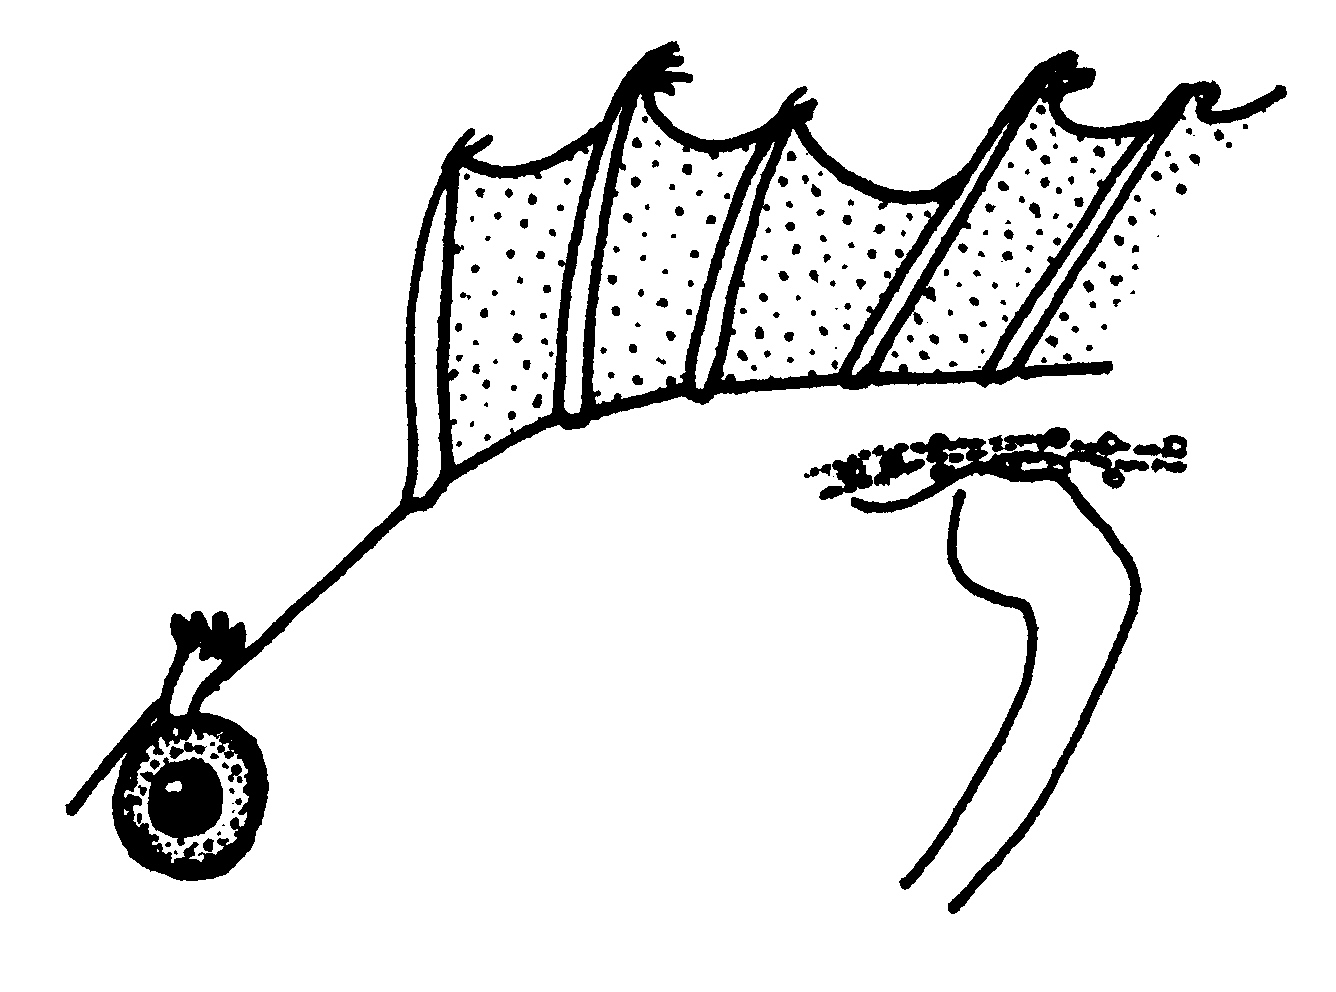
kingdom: Animalia
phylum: Chordata
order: Perciformes
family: Clinidae
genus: Clinus
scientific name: Clinus robustus
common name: Robust klipfish
